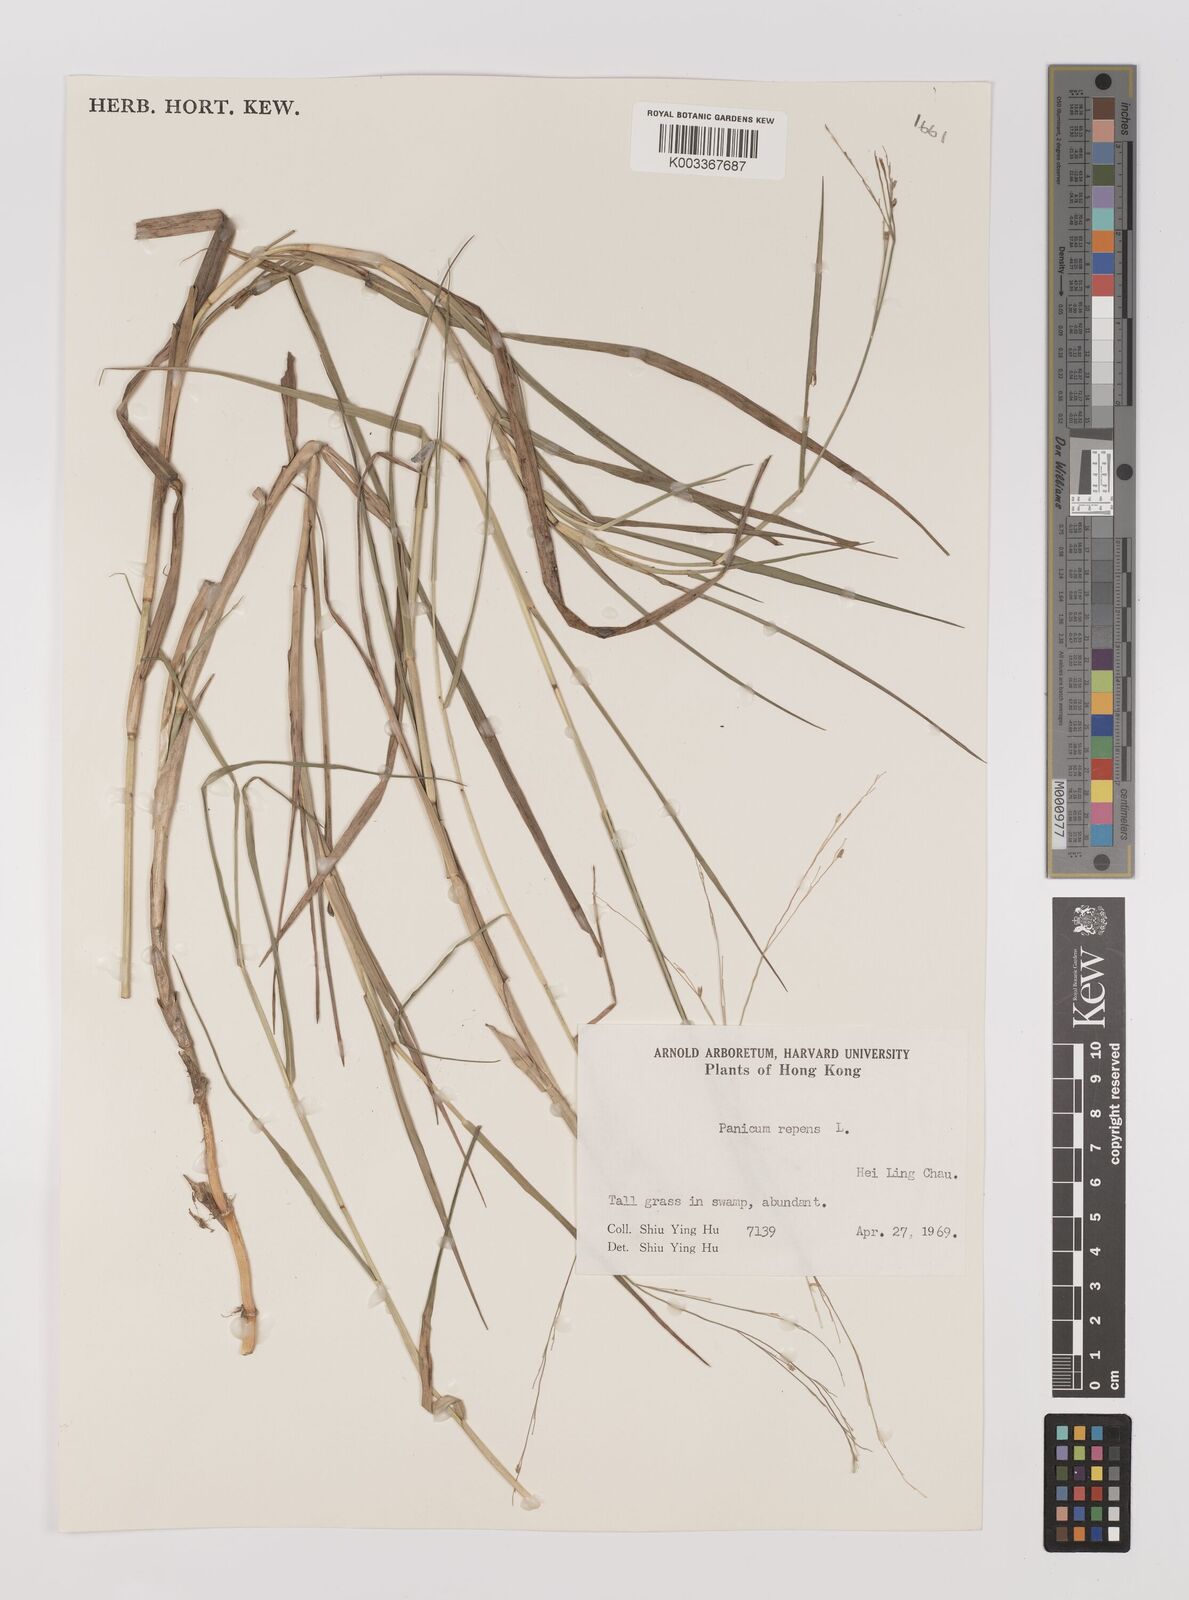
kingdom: Plantae
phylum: Tracheophyta
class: Liliopsida
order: Poales
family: Poaceae
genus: Panicum
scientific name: Panicum repens
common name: Torpedo grass
